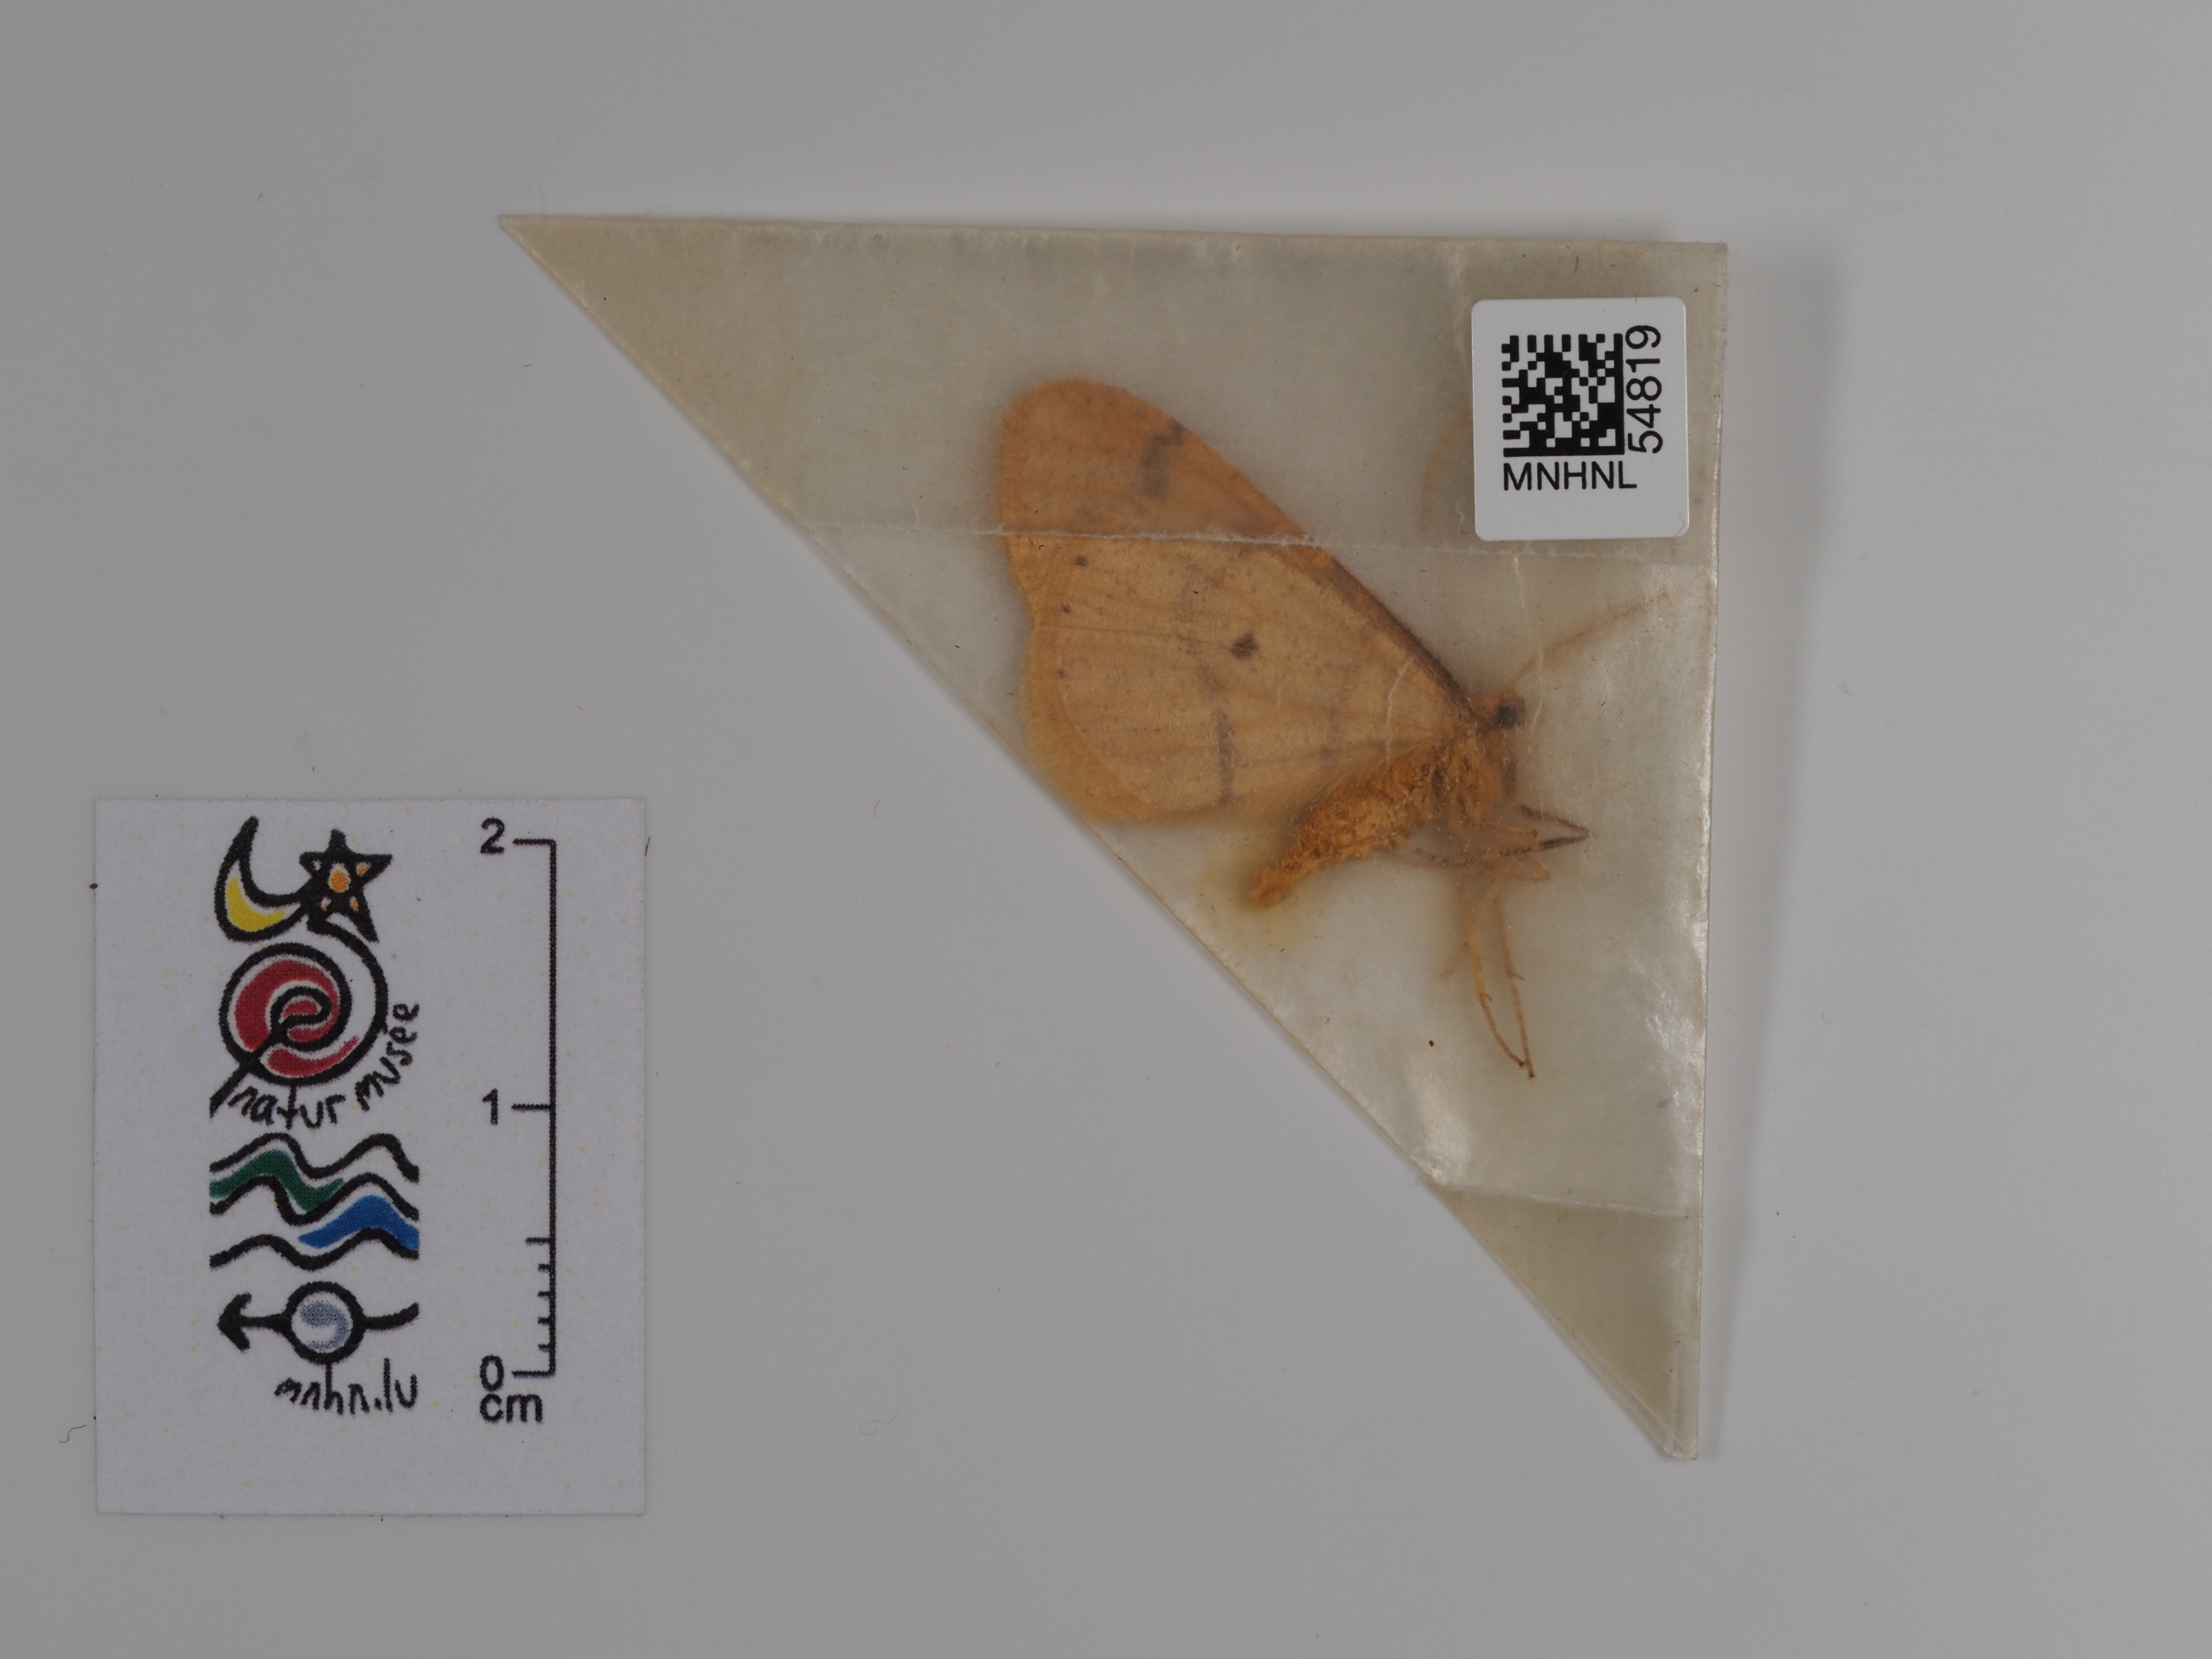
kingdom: Animalia
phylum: Arthropoda
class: Insecta
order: Lepidoptera
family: Geometridae
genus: Agriopis
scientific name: Agriopis aurantiaria
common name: Scarce umber
